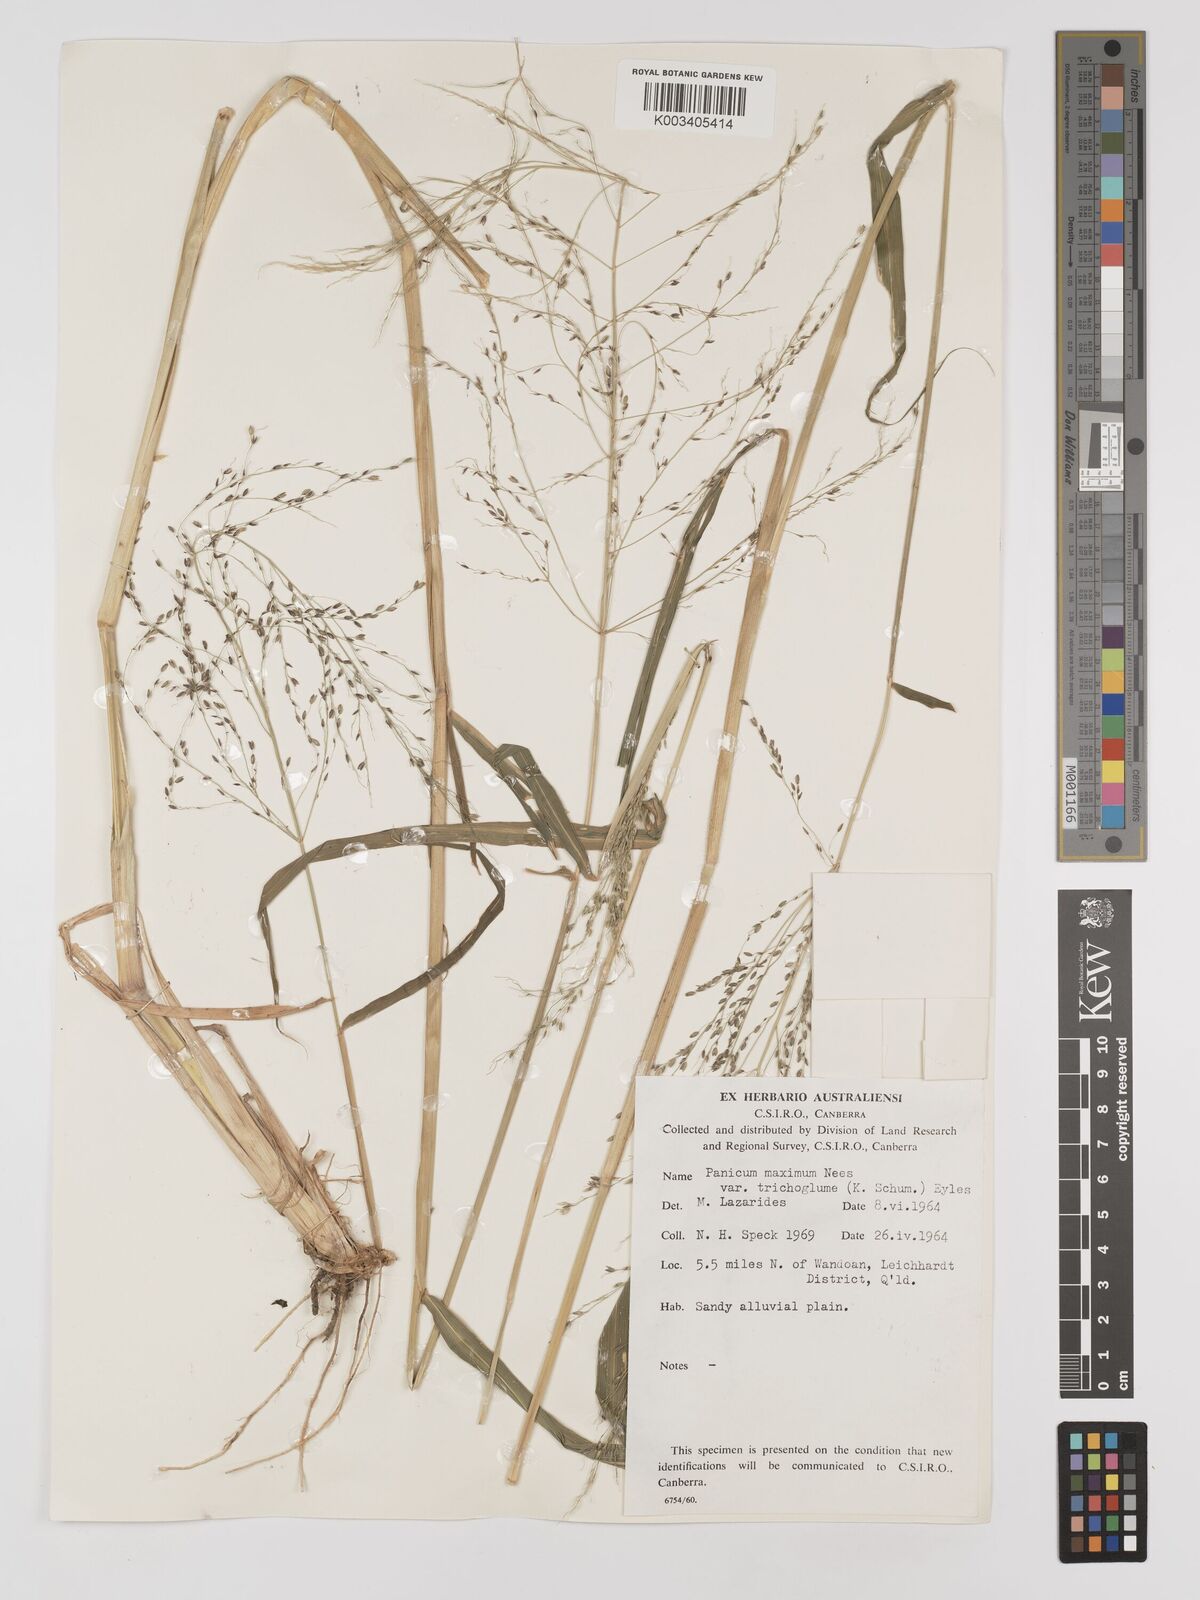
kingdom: Plantae
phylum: Tracheophyta
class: Liliopsida
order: Poales
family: Poaceae
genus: Megathyrsus
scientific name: Megathyrsus maximus
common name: Guineagrass
